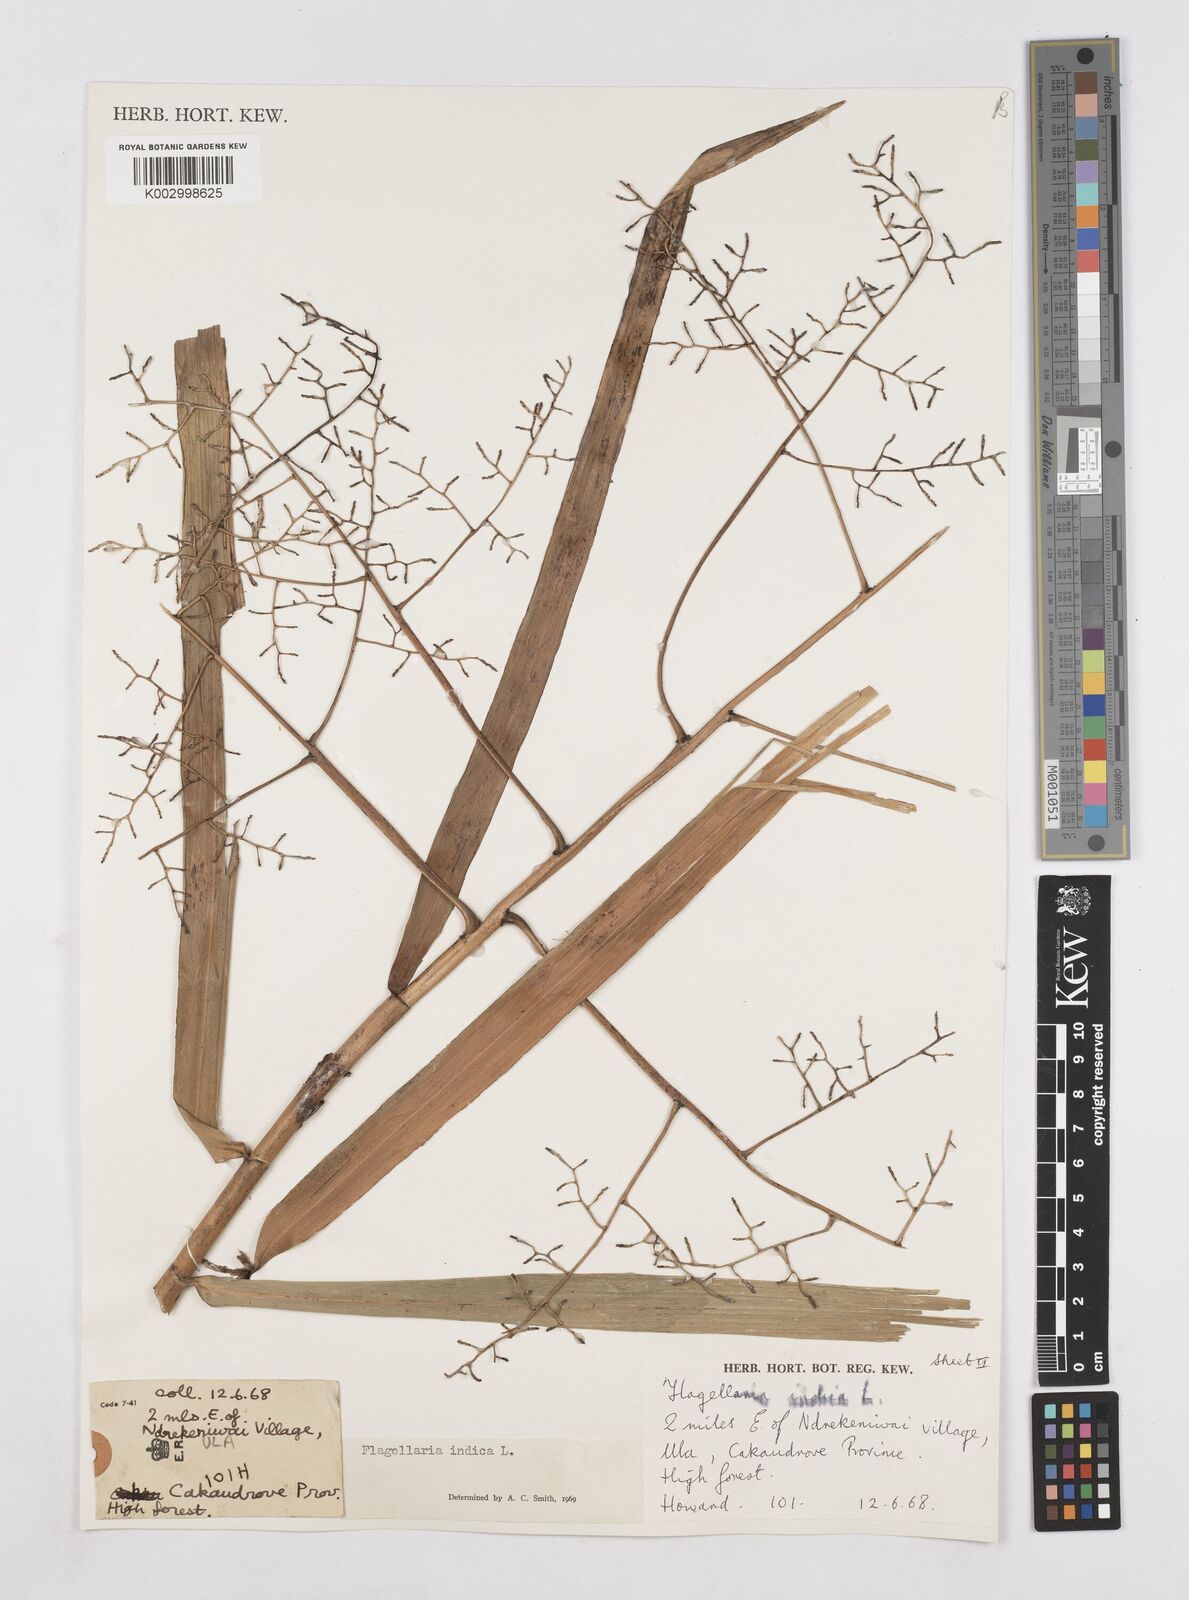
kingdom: Plantae
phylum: Tracheophyta
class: Liliopsida
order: Poales
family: Flagellariaceae
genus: Flagellaria
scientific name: Flagellaria gigantea
